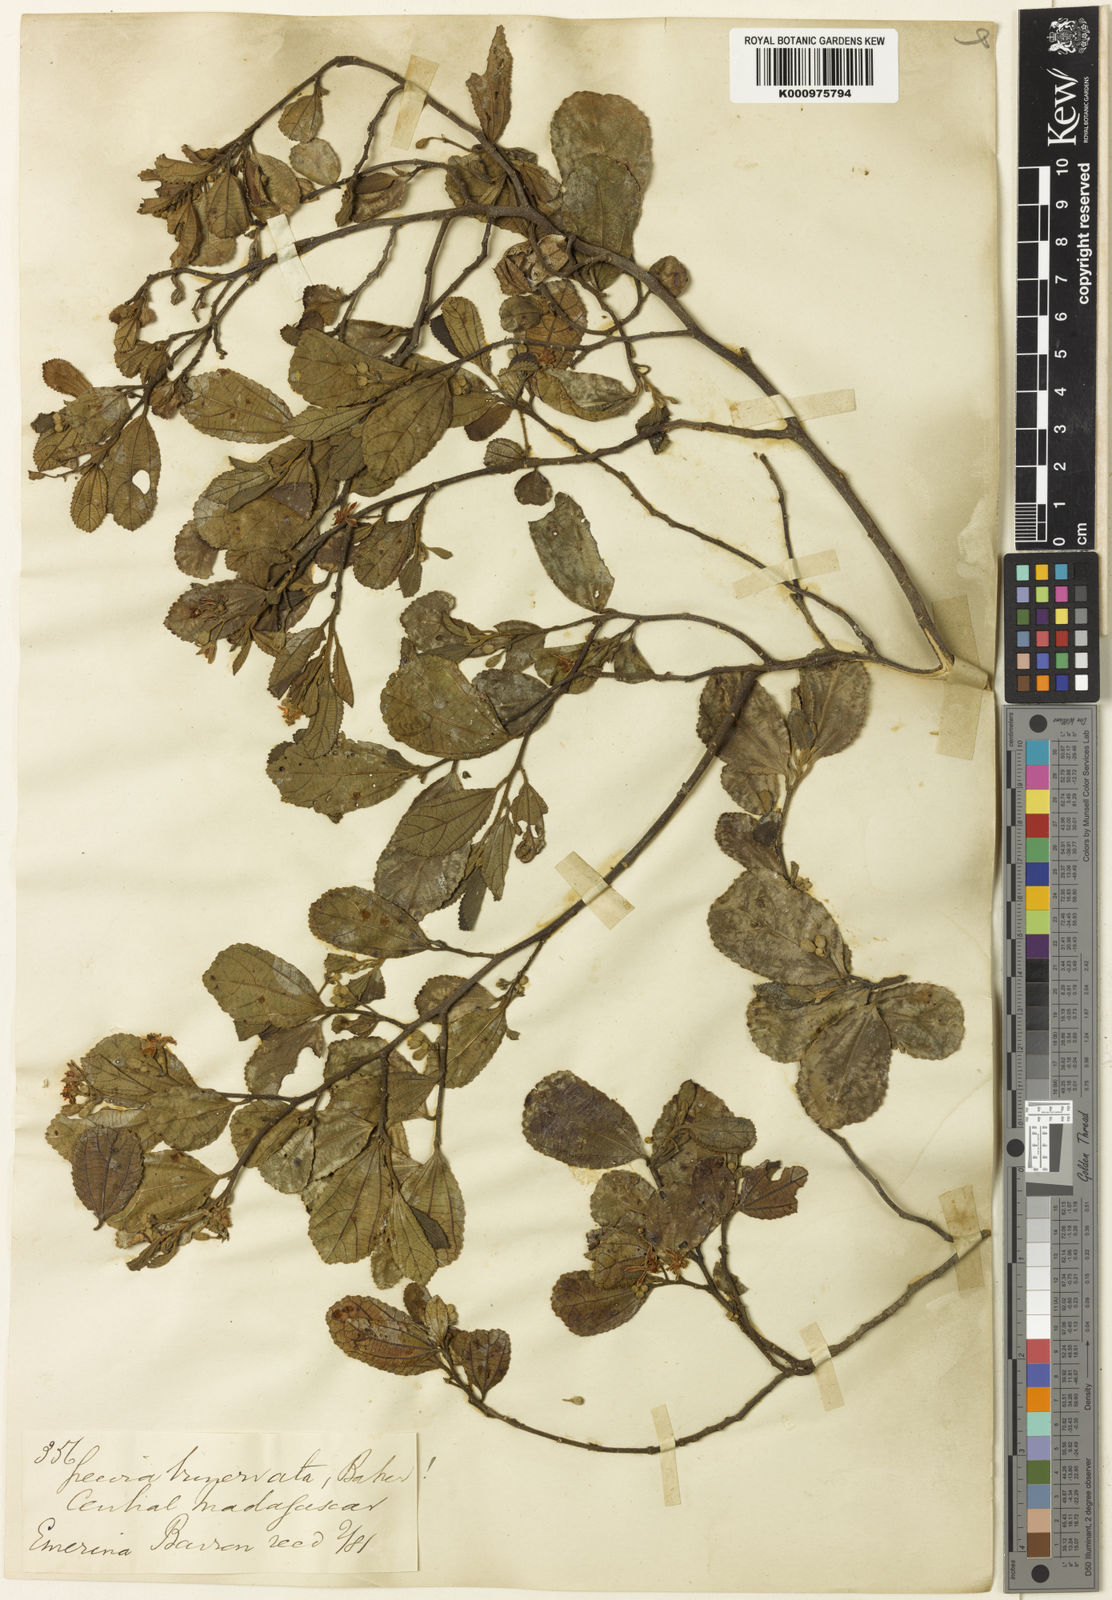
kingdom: Plantae
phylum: Tracheophyta
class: Magnoliopsida
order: Malvales
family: Malvaceae
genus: Grewia
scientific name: Grewia cuneifolia
